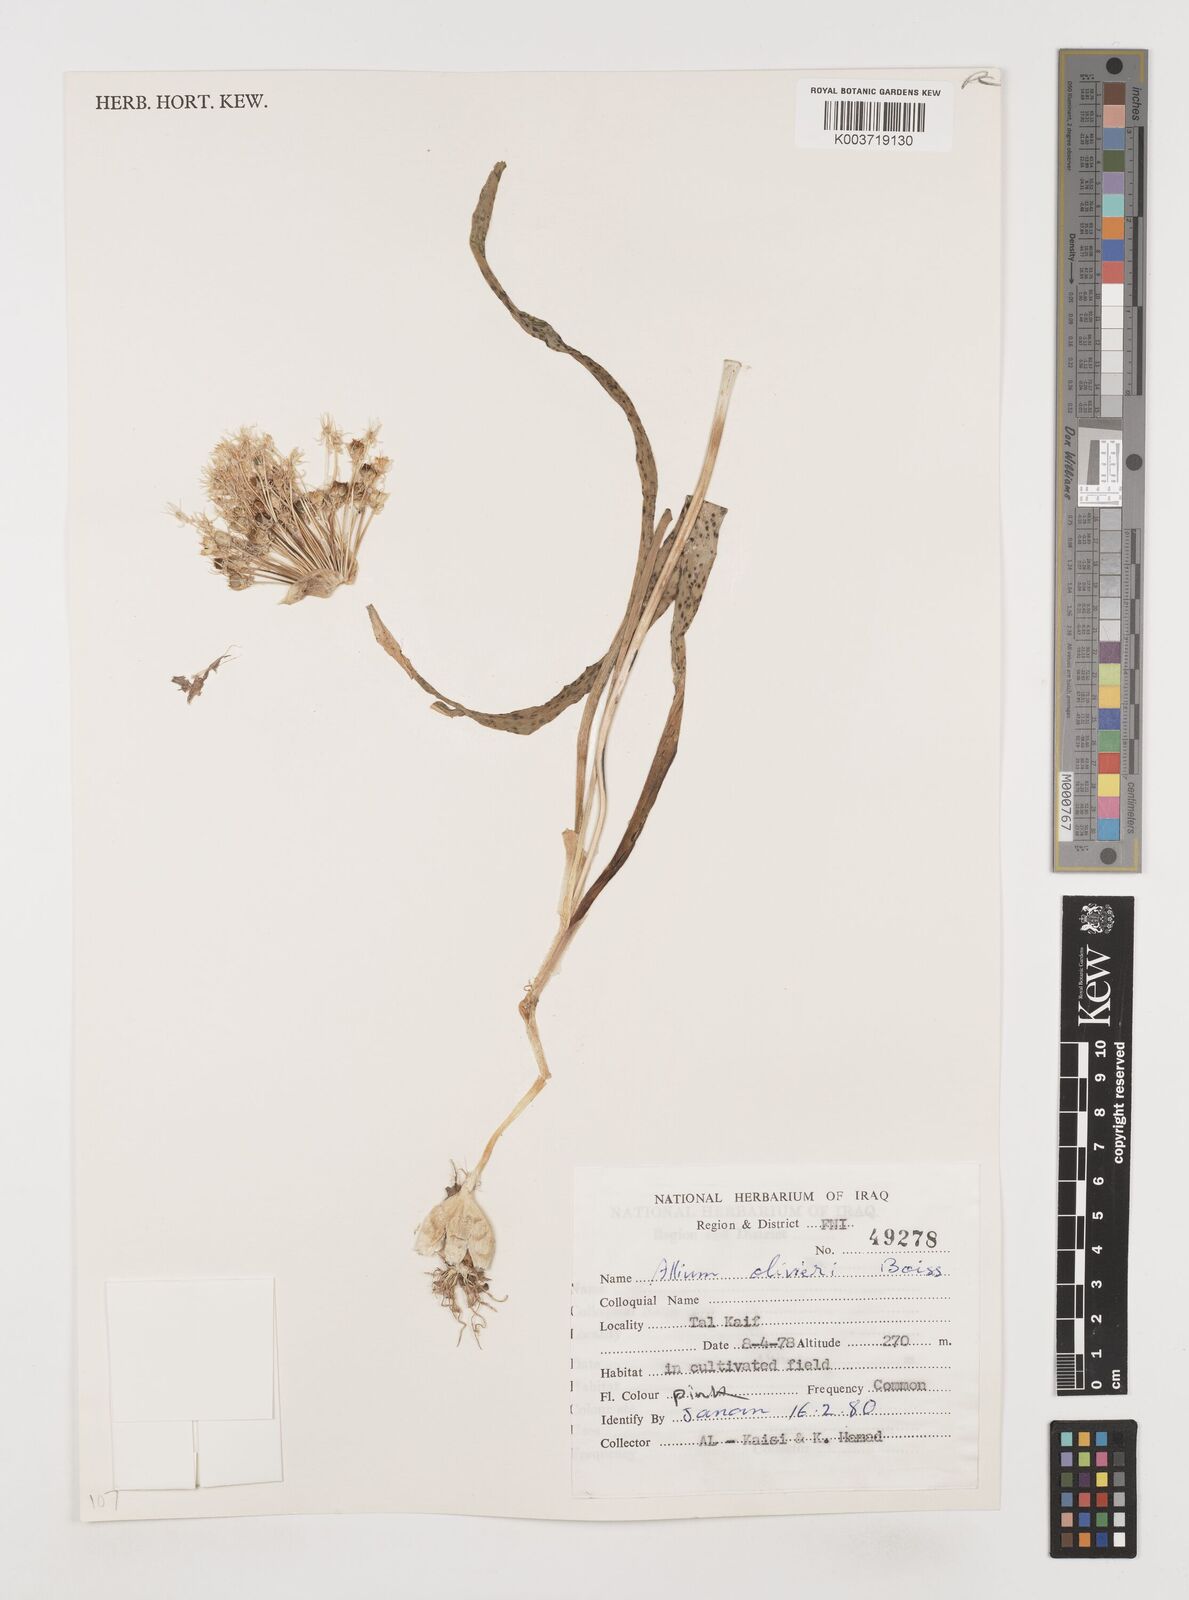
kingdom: Plantae
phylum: Tracheophyta
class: Liliopsida
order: Asparagales
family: Amaryllidaceae
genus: Allium
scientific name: Allium olivieri
